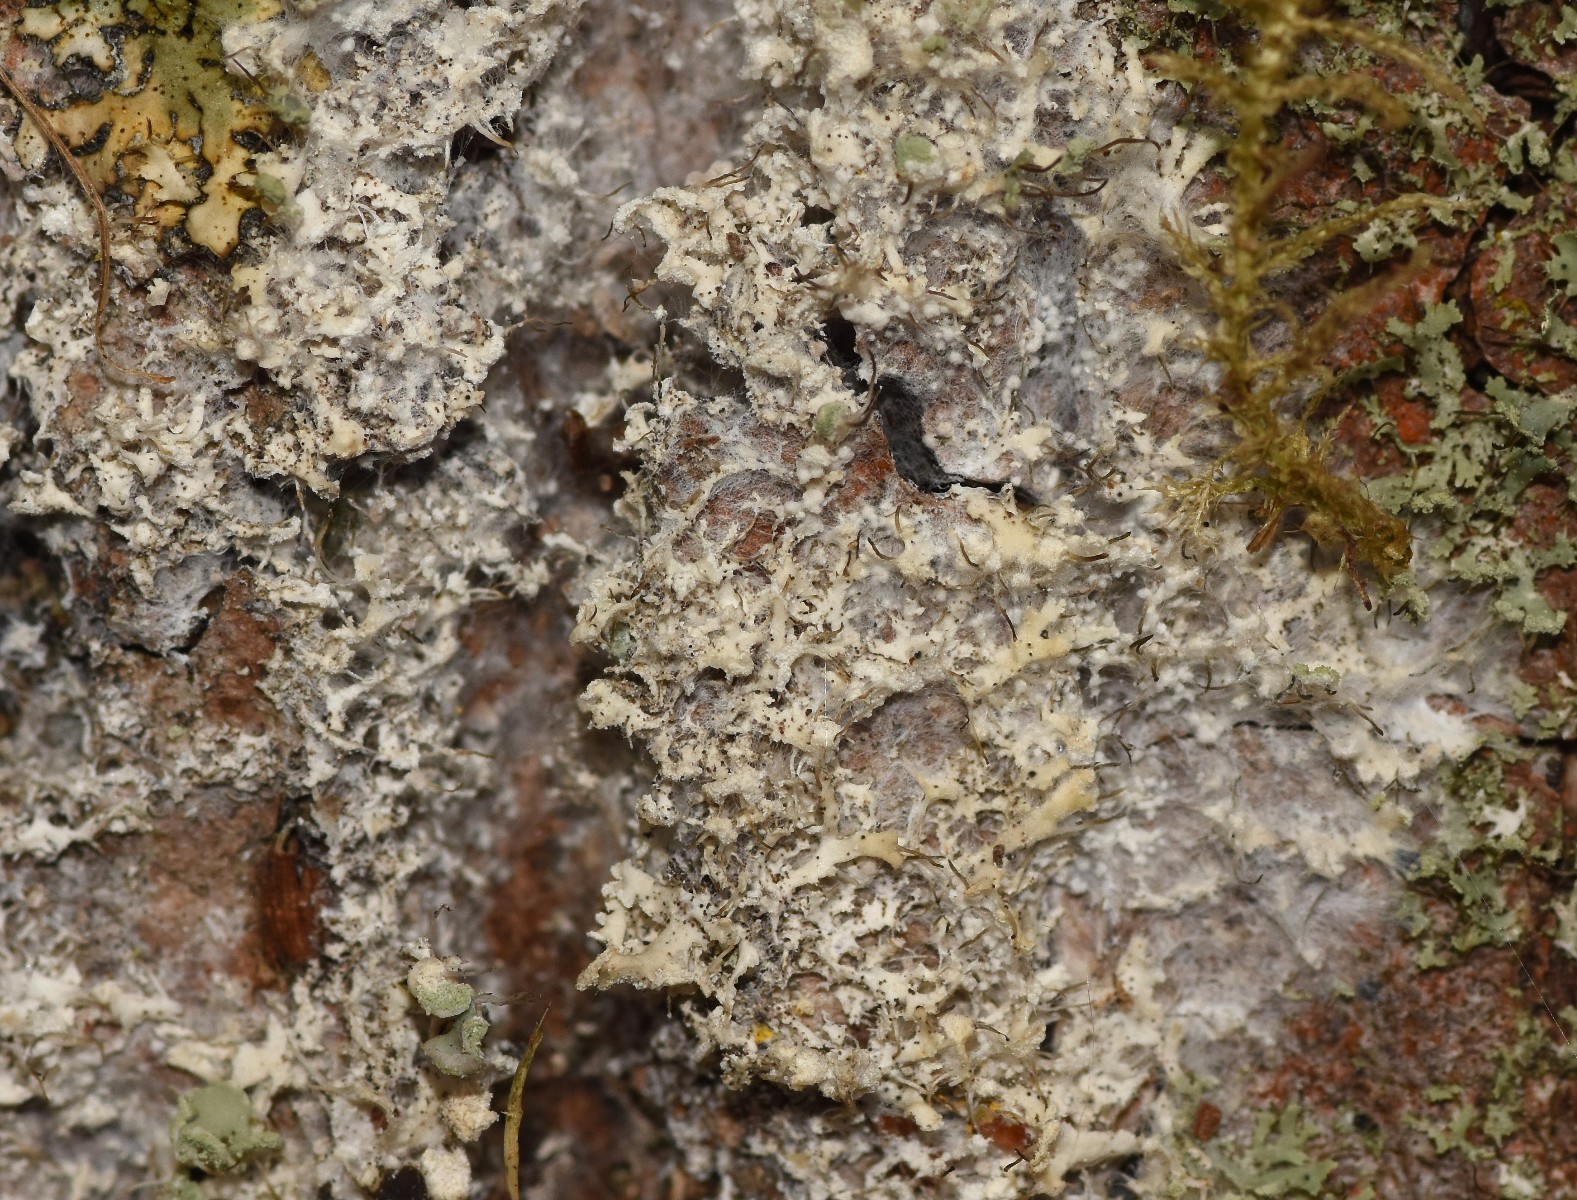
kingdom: Fungi
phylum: Basidiomycota
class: Agaricomycetes
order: Atheliales
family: Atheliaceae
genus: Athelia
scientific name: Athelia arachnoidea
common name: randet barkhinde
